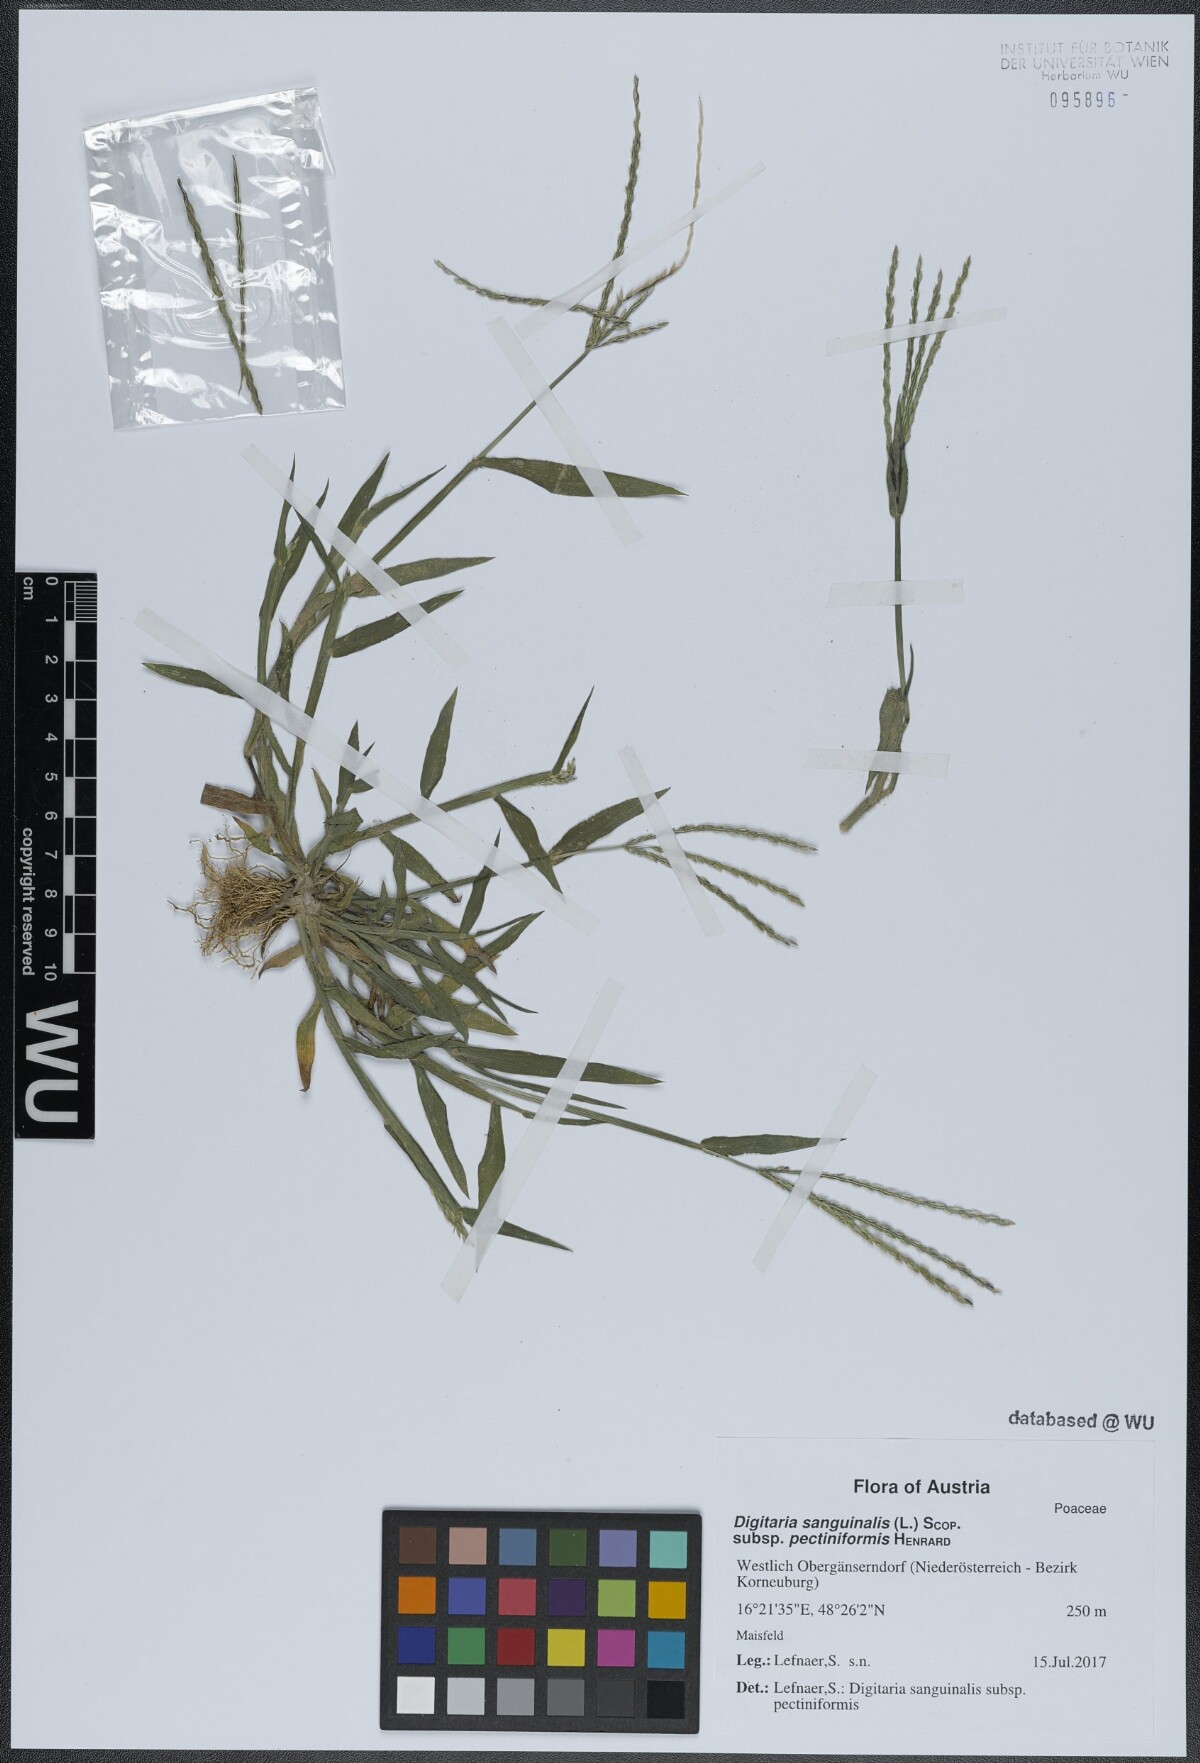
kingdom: Plantae
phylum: Tracheophyta
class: Liliopsida
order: Poales
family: Poaceae
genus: Digitaria
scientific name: Digitaria sanguinalis
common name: Hairy crabgrass
